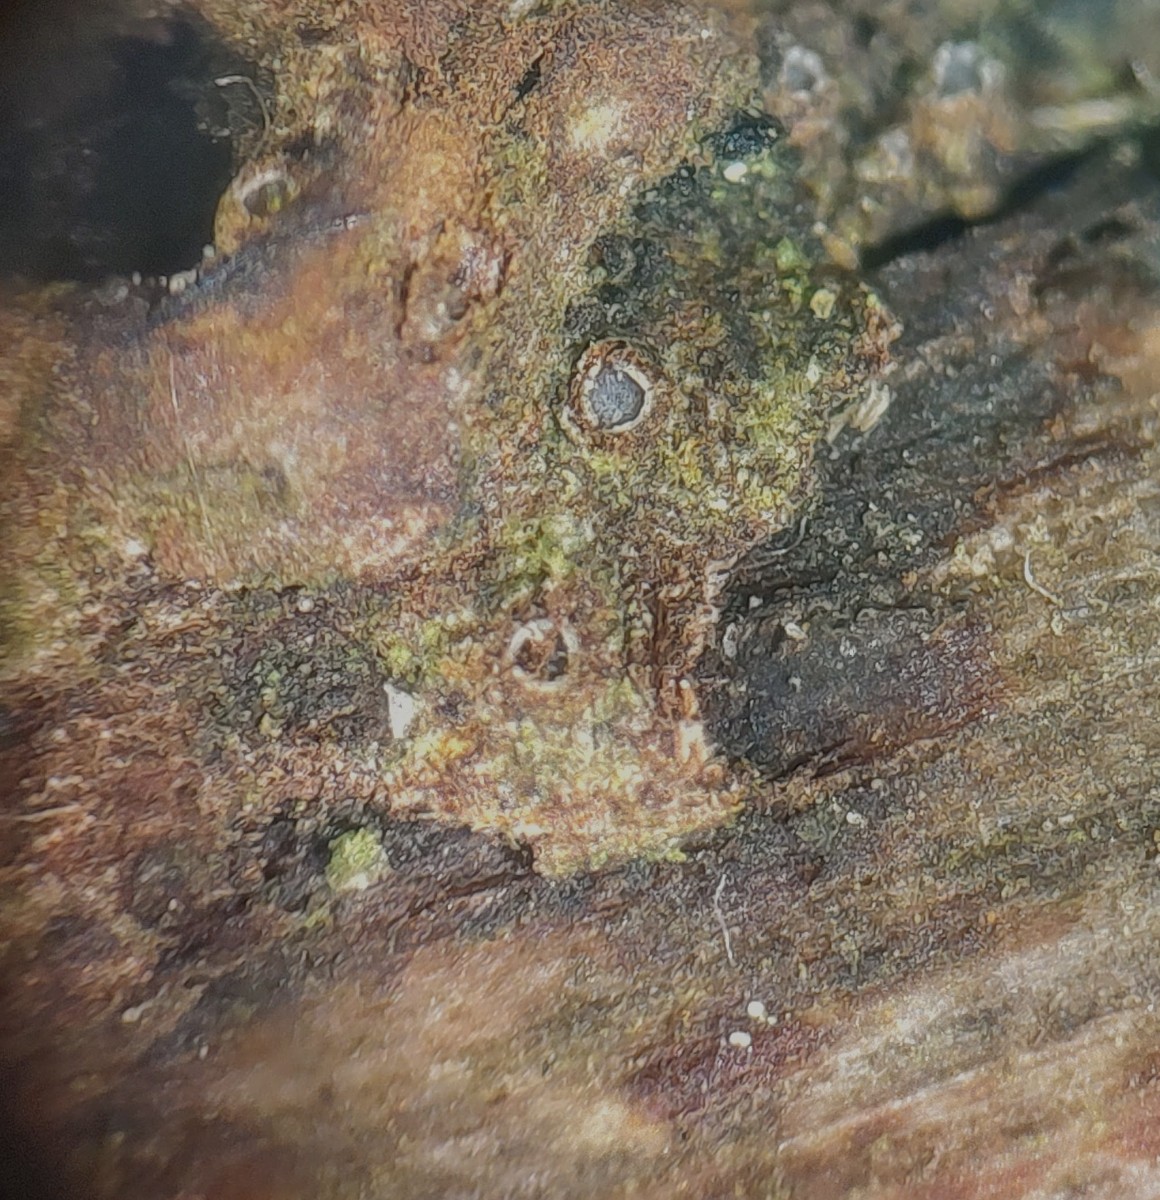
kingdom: Fungi
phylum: Ascomycota
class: Lecanoromycetes
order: Ostropales
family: Stictidaceae
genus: Karstenia
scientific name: Karstenia rhopaloides
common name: grårosa barkhul
